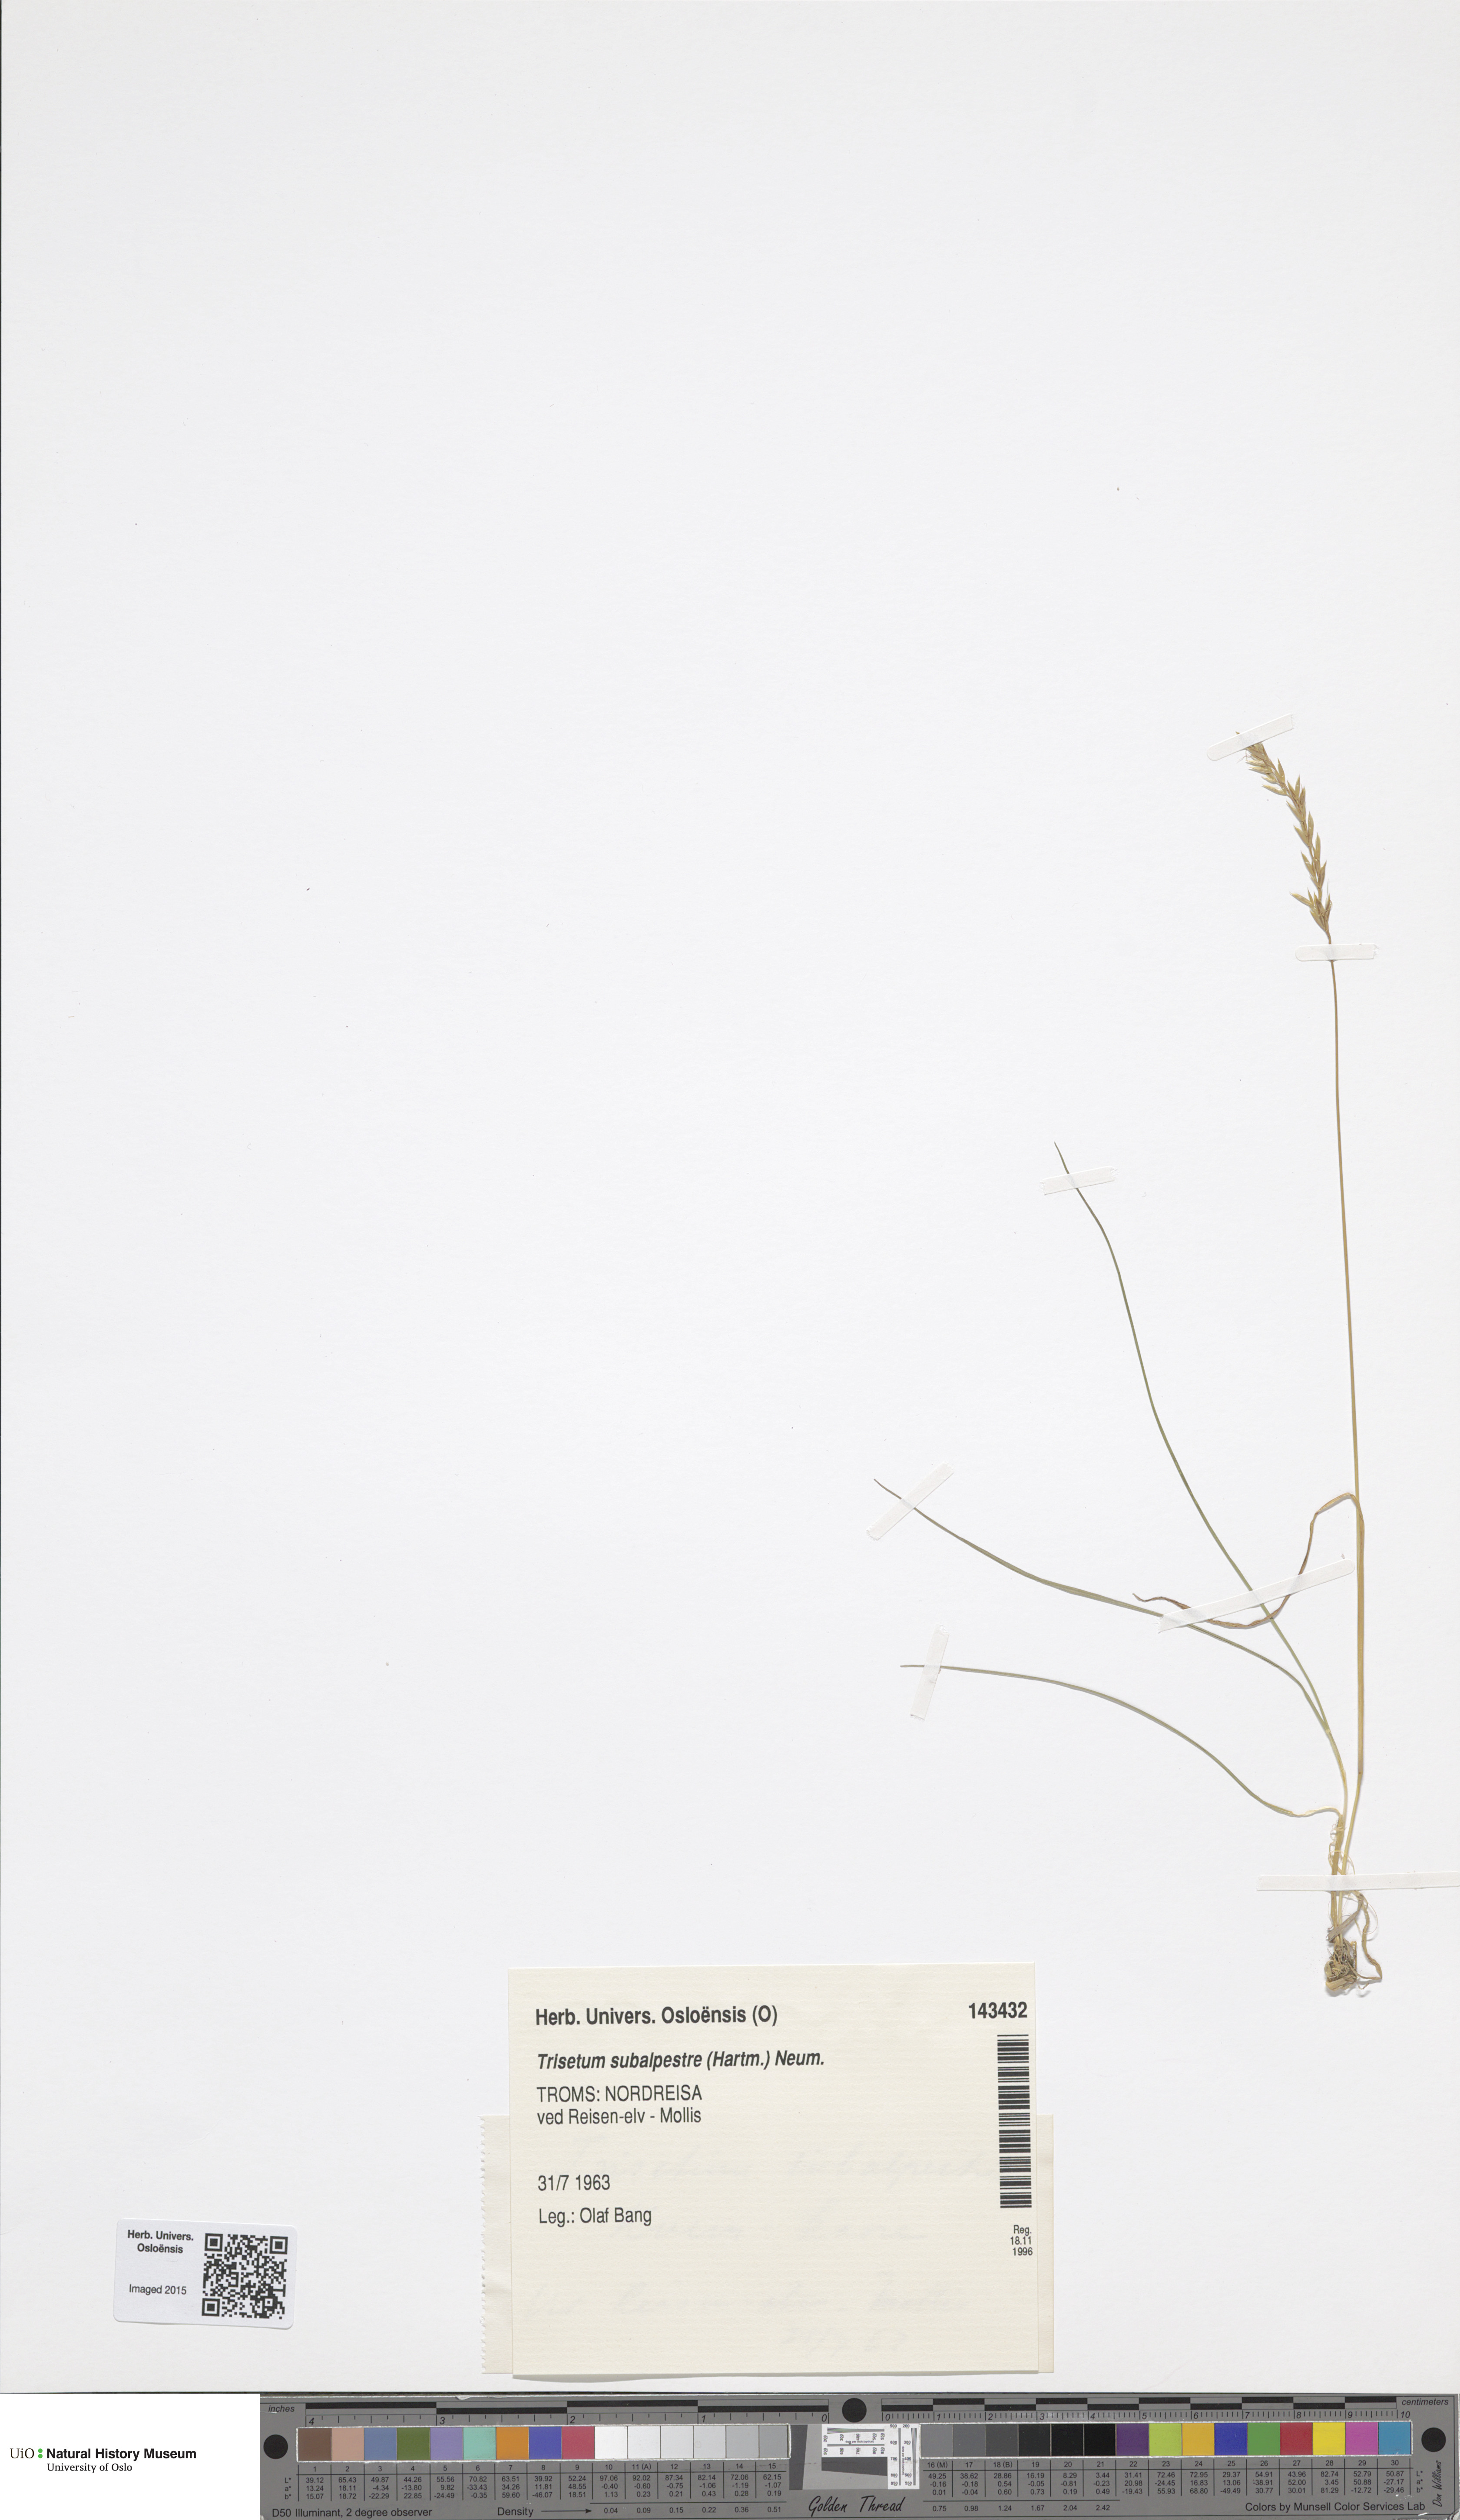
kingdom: Plantae
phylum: Tracheophyta
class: Liliopsida
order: Poales
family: Poaceae
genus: Koeleria
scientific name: Koeleria subalpestris
